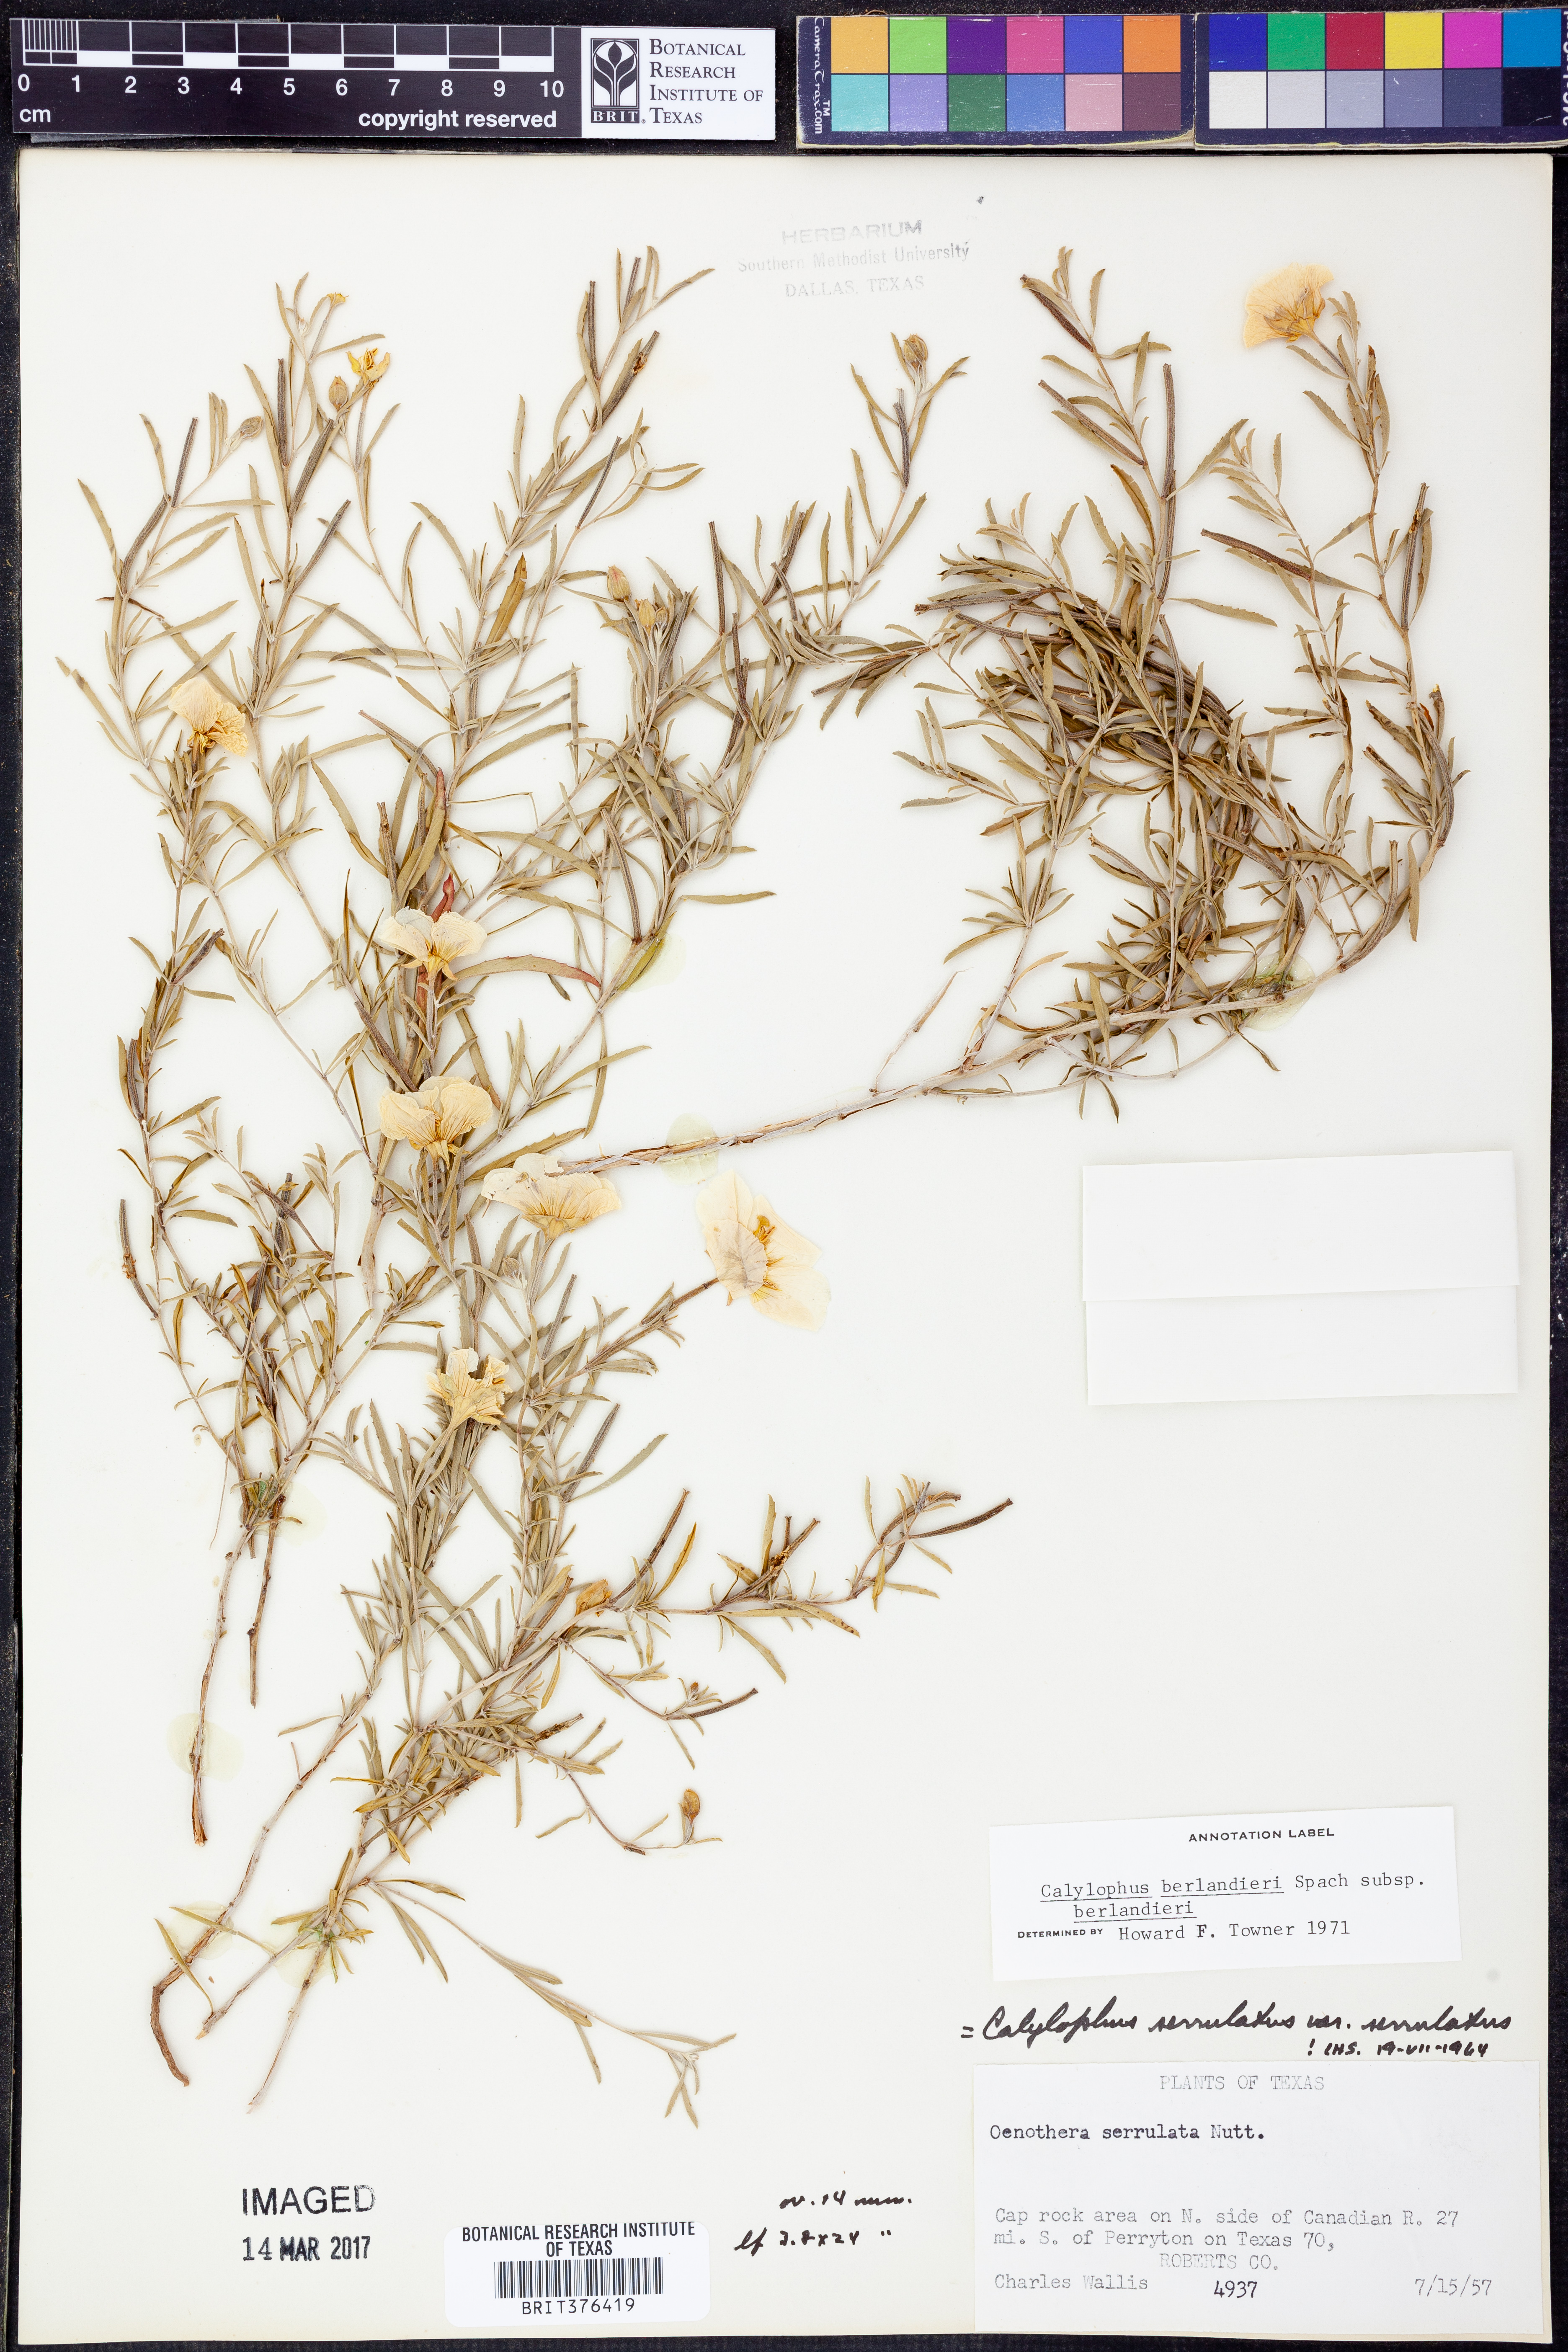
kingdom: Plantae
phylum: Tracheophyta
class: Magnoliopsida
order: Myrtales
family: Onagraceae
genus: Oenothera
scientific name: Oenothera capillifolia
